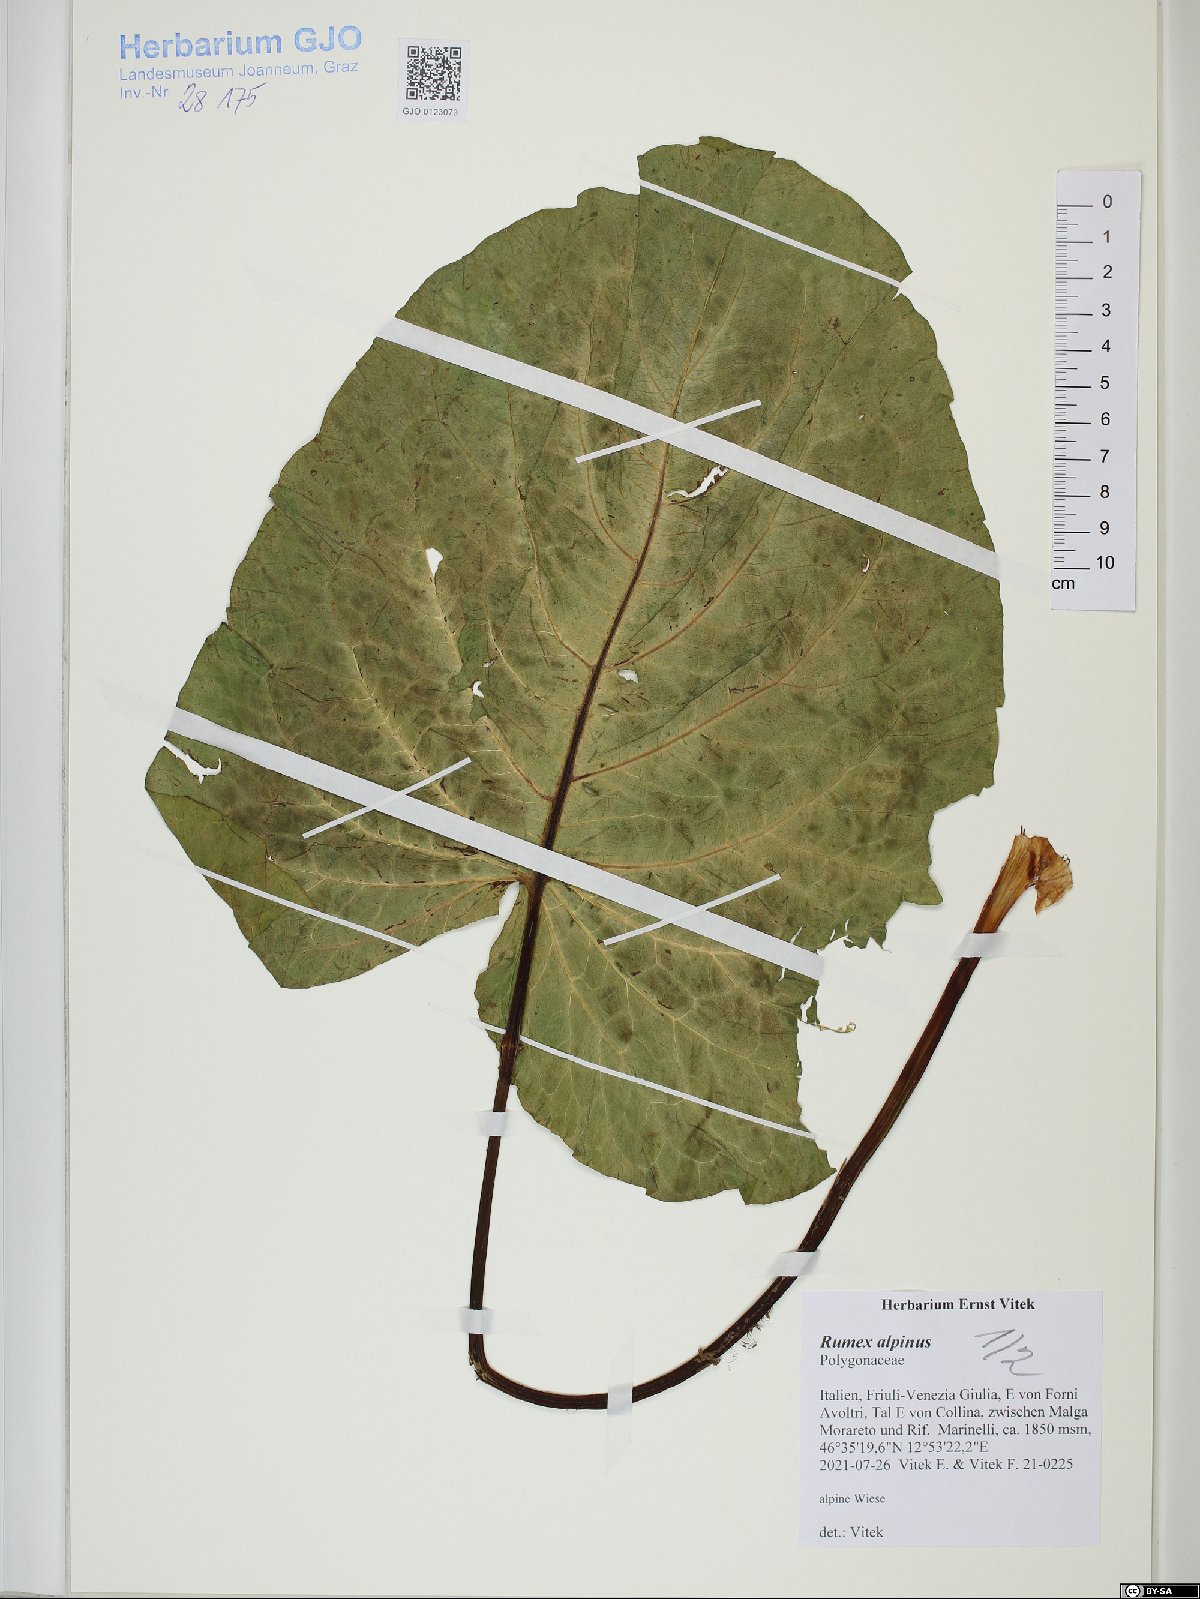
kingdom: Plantae
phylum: Tracheophyta
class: Magnoliopsida
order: Caryophyllales
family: Polygonaceae
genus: Rumex
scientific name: Rumex alpinus
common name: Alpine dock
